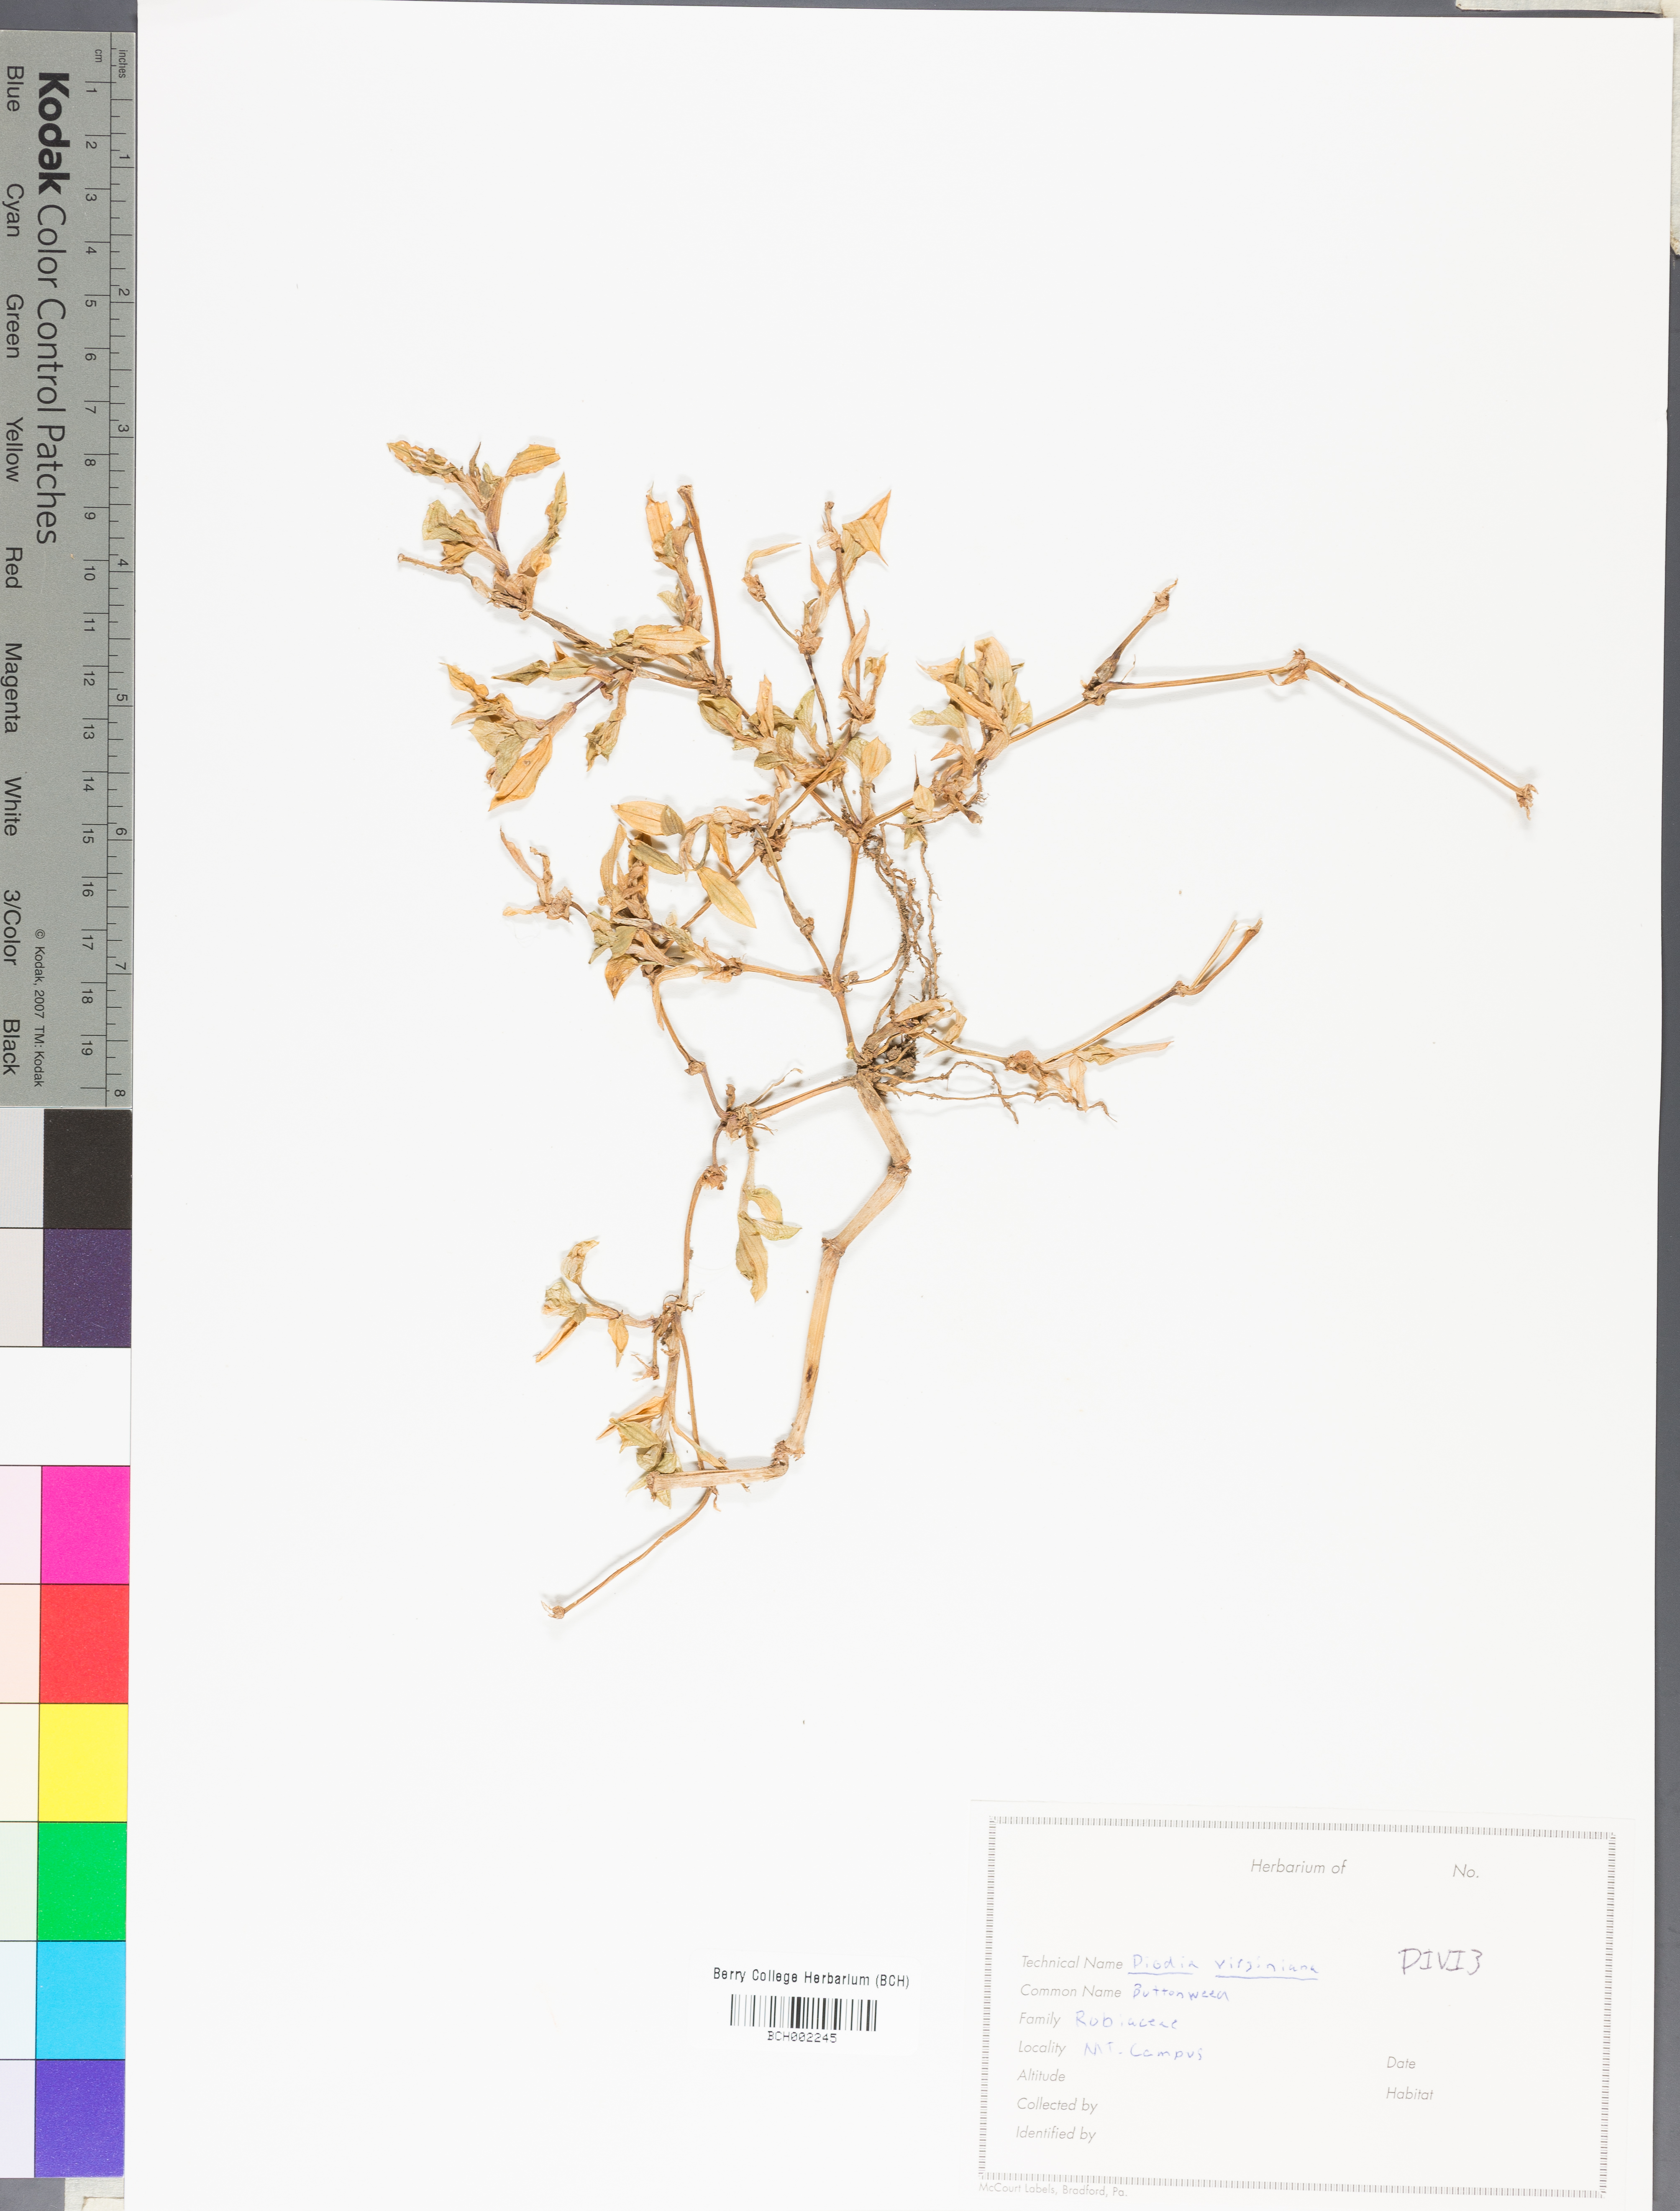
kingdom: Plantae
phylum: Tracheophyta
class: Magnoliopsida
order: Gentianales
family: Rubiaceae
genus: Diodia
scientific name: Diodia virginiana
